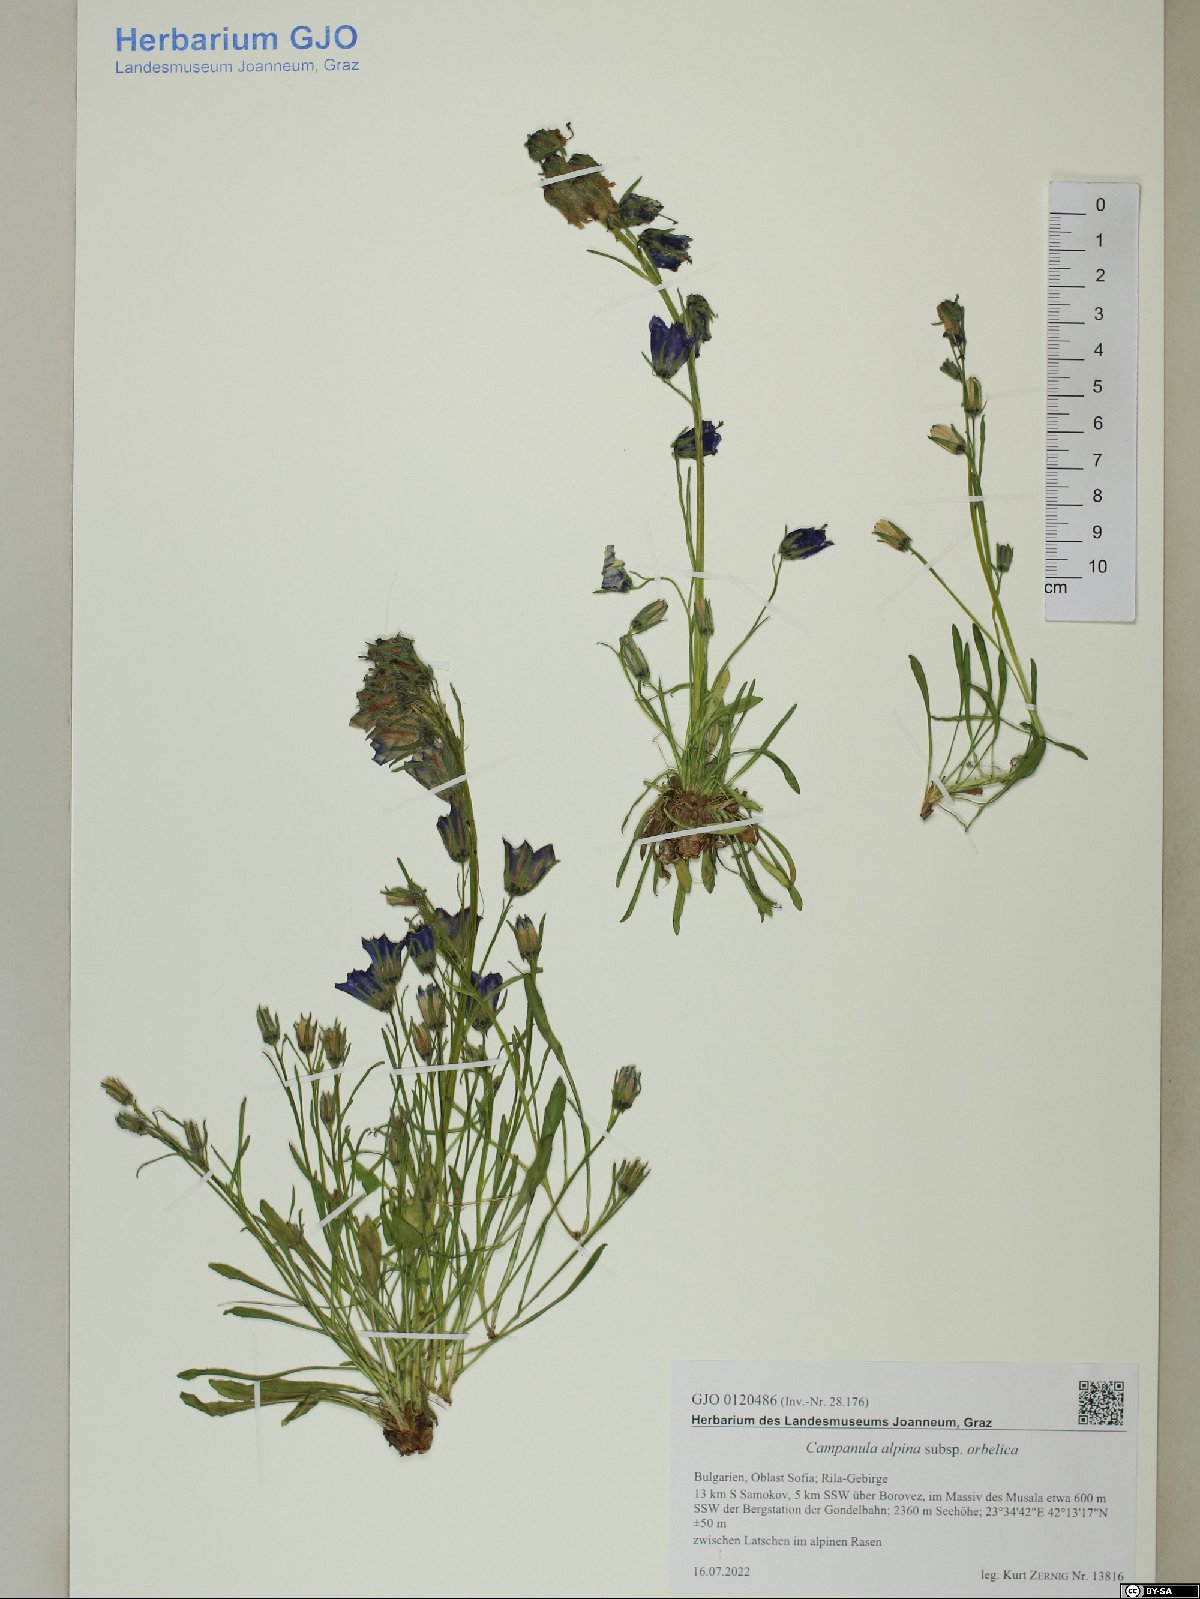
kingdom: Plantae
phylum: Tracheophyta
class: Magnoliopsida
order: Asterales
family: Campanulaceae
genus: Campanula
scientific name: Campanula orbelica
